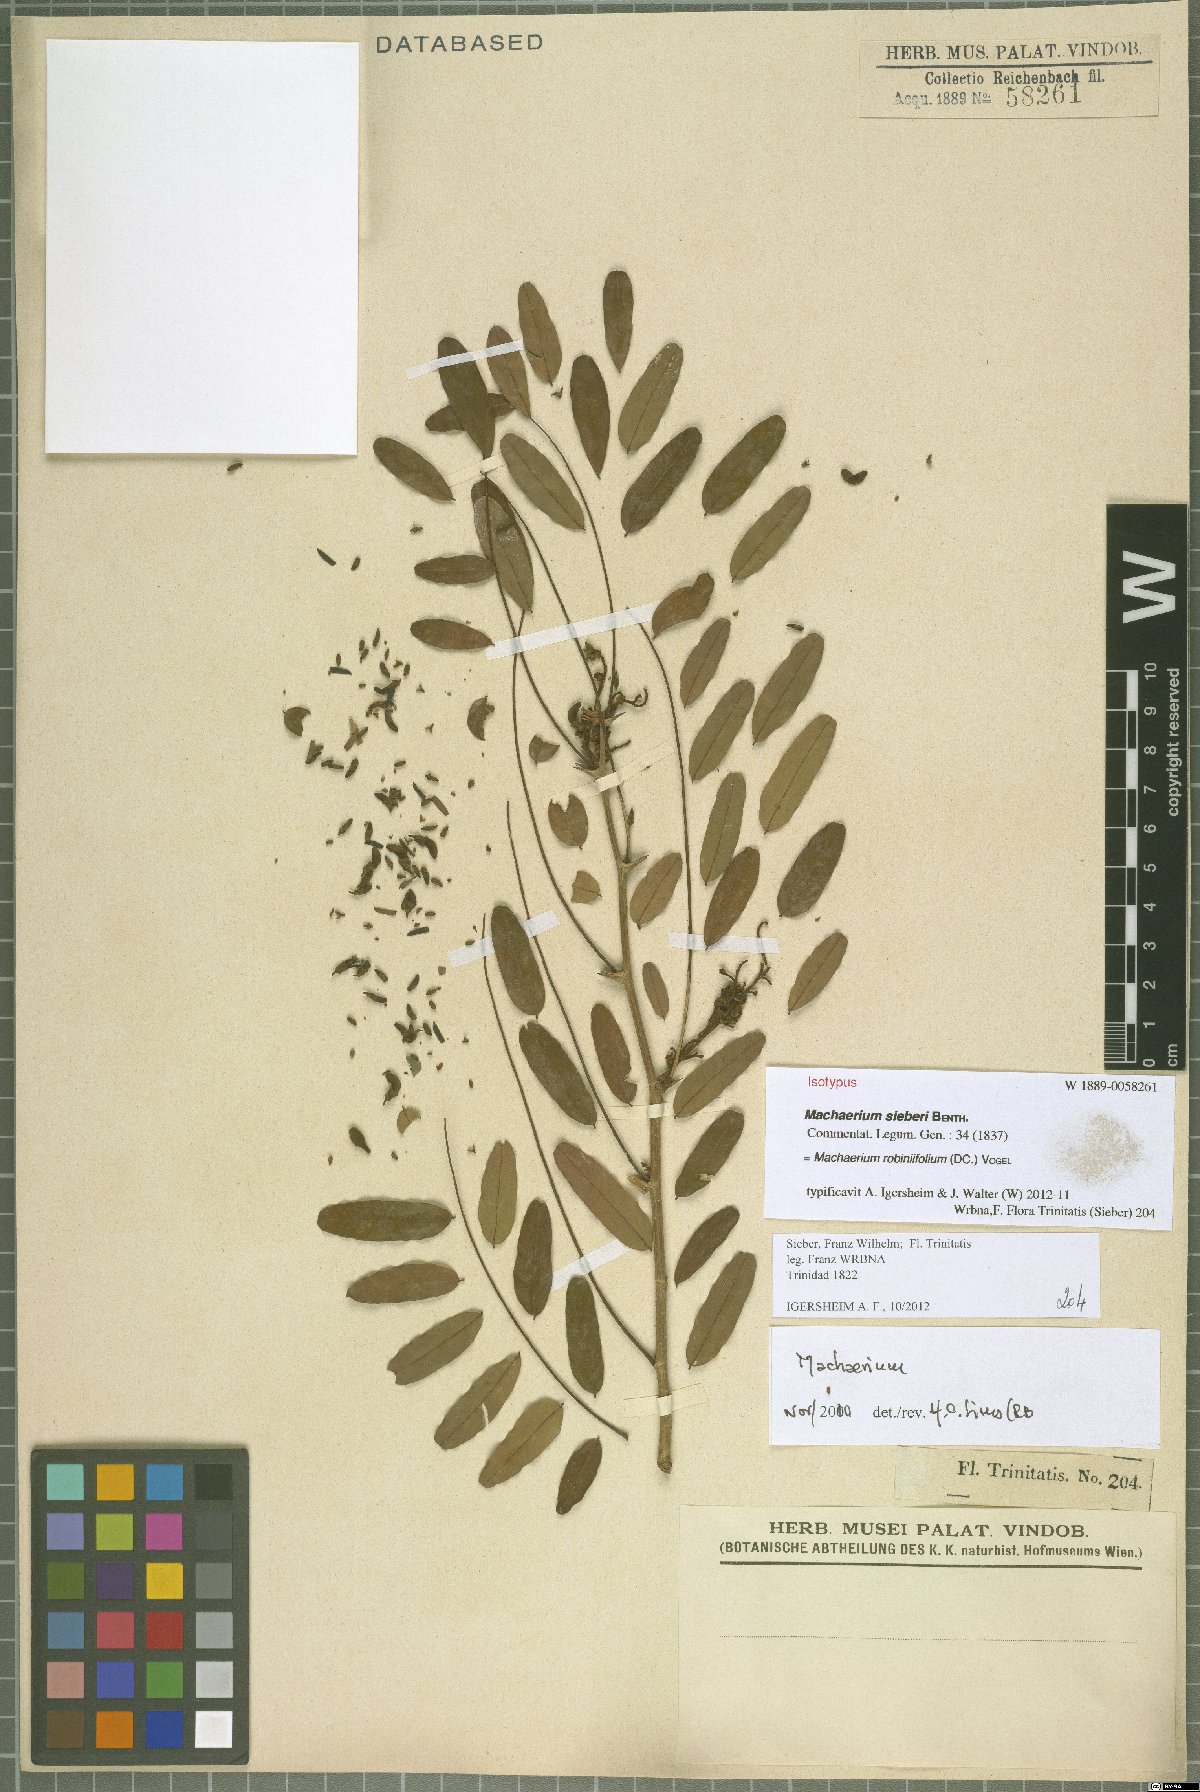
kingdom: Plantae
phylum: Tracheophyta
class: Magnoliopsida
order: Fabales
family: Fabaceae
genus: Machaerium
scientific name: Machaerium robiniifolium
